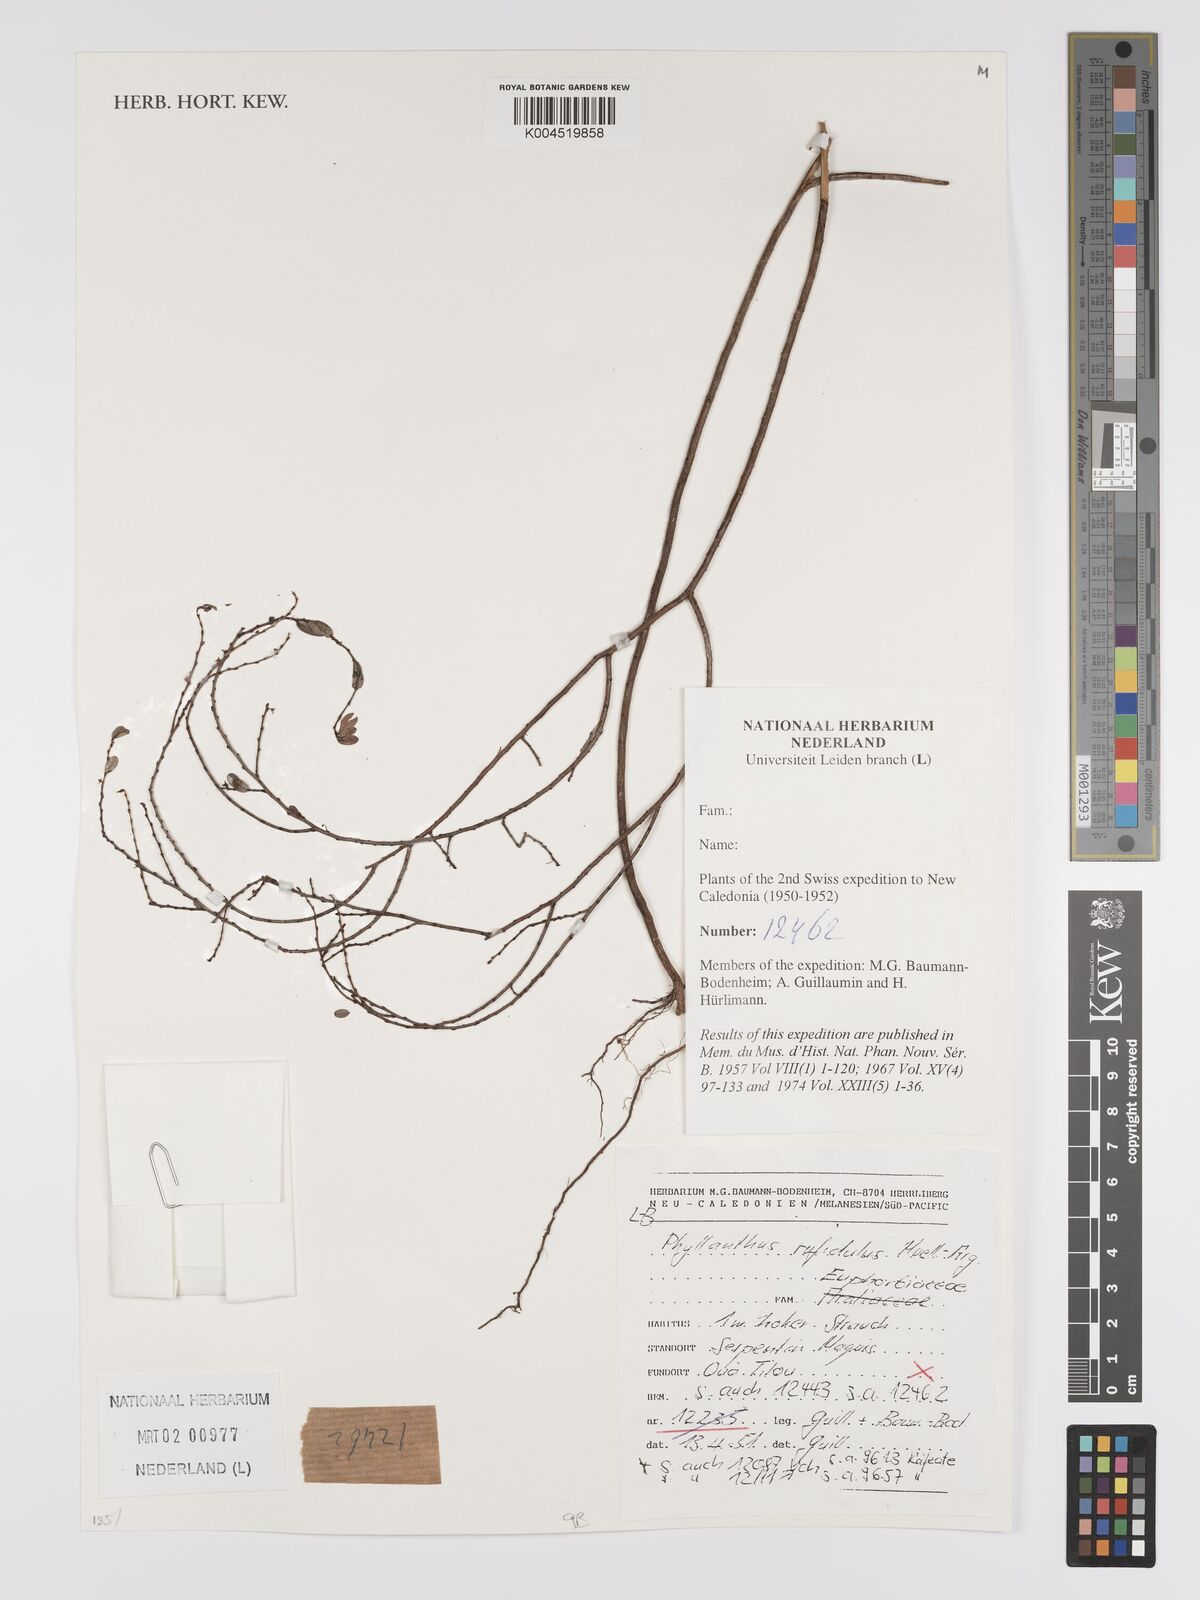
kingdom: Plantae
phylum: Tracheophyta
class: Magnoliopsida
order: Malpighiales
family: Phyllanthaceae
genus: Phyllanthus
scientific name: Phyllanthus chrysanthus
